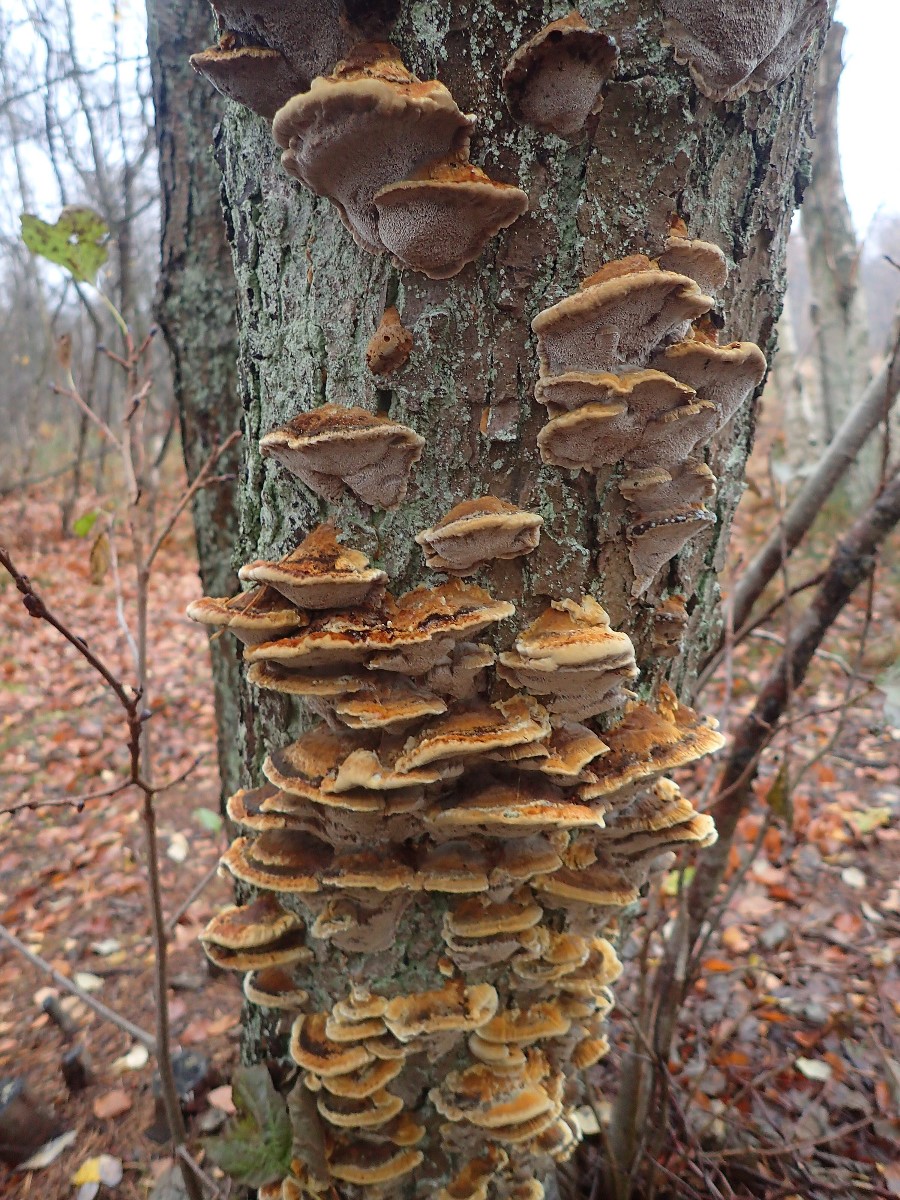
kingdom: Fungi
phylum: Basidiomycota
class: Agaricomycetes
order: Hymenochaetales
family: Hymenochaetaceae
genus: Xanthoporia
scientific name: Xanthoporia radiata
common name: elle-spejlporesvamp
